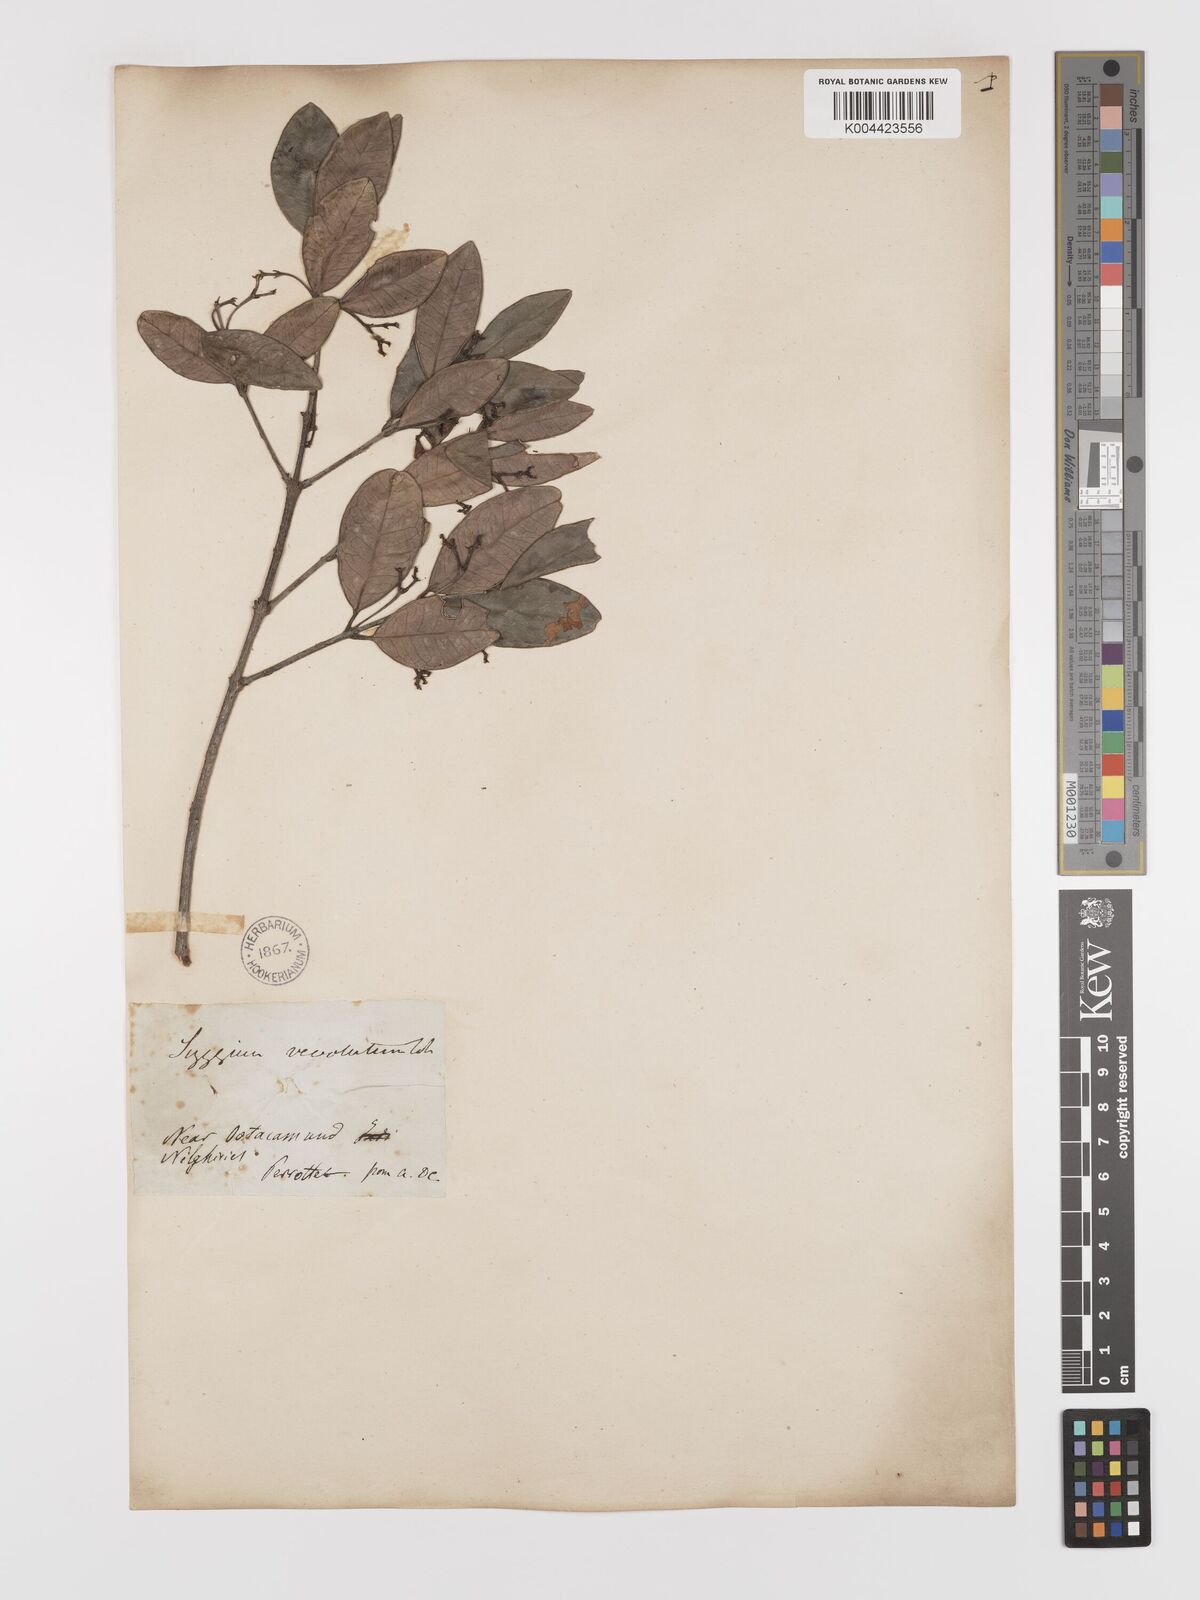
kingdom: Plantae
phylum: Tracheophyta
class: Magnoliopsida
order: Celastrales
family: Celastraceae
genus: Microtropis
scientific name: Microtropis microcarpa
